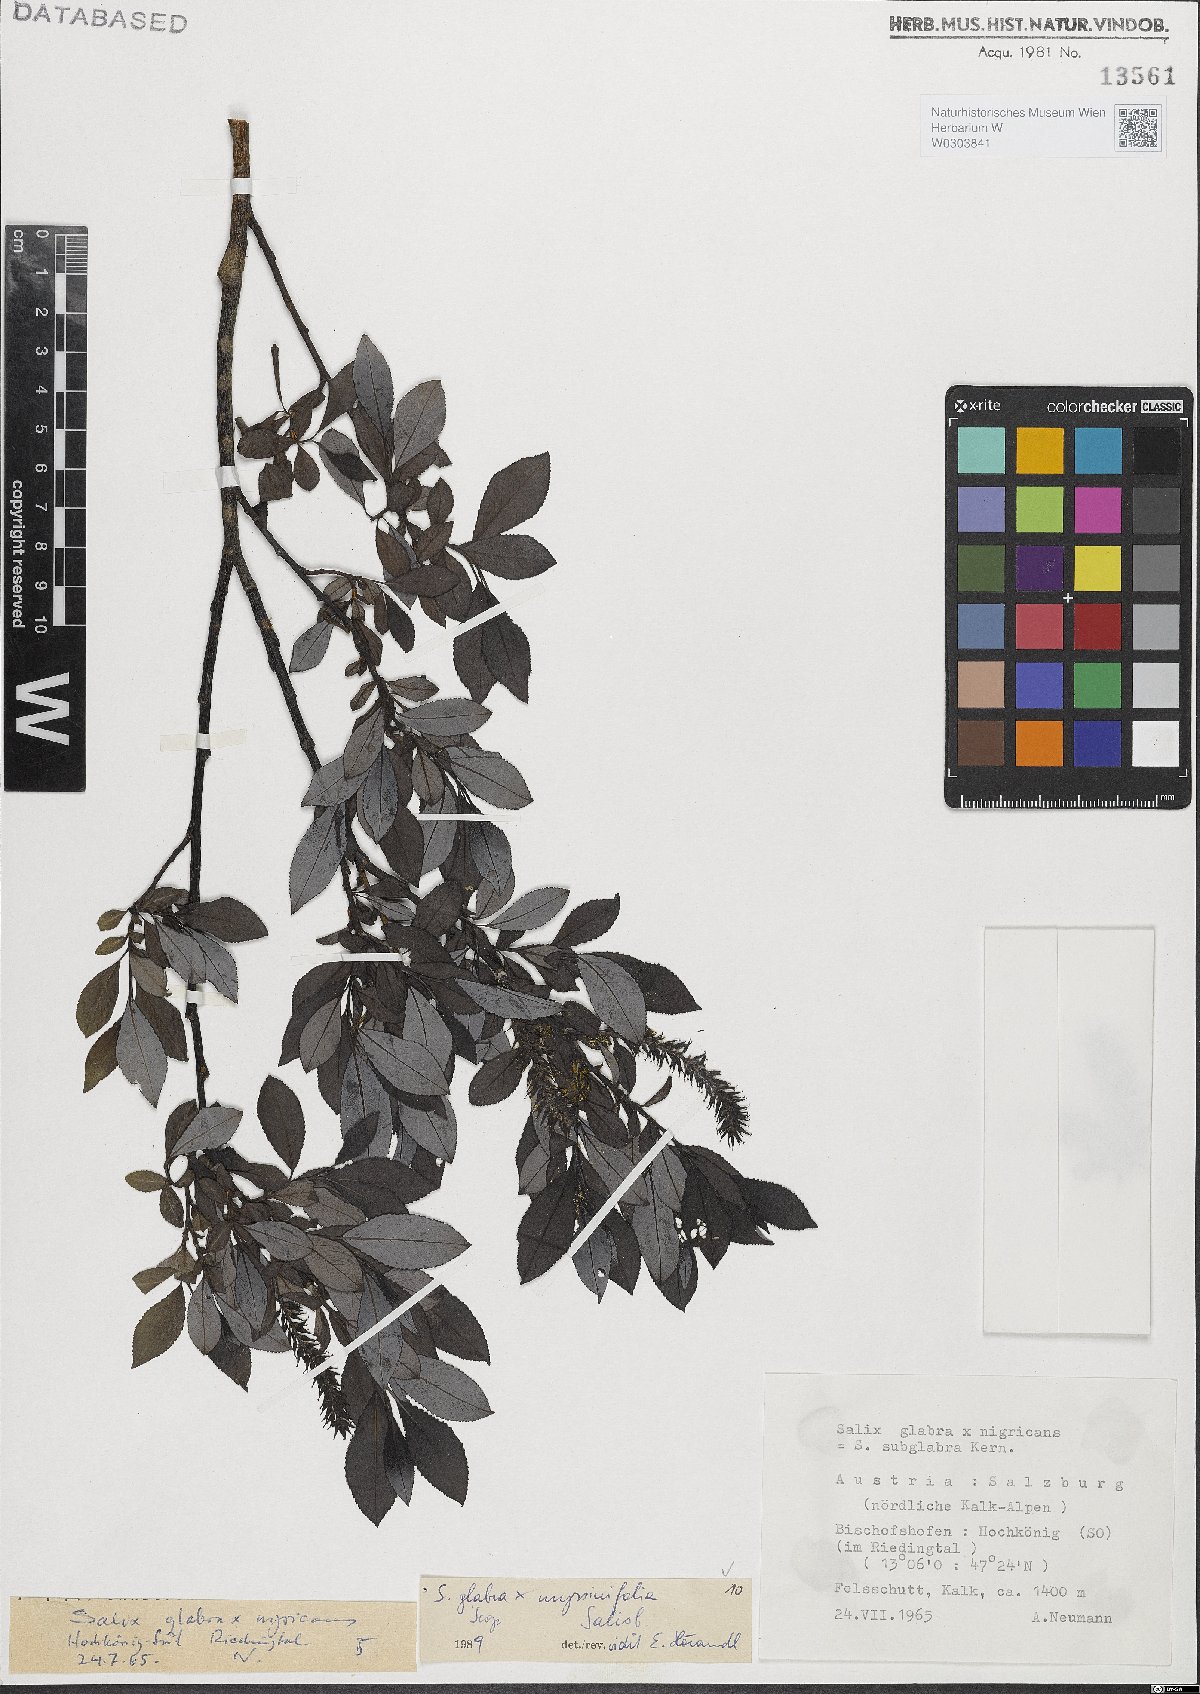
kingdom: Plantae
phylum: Tracheophyta
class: Magnoliopsida
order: Malpighiales
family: Salicaceae
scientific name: Salicaceae
